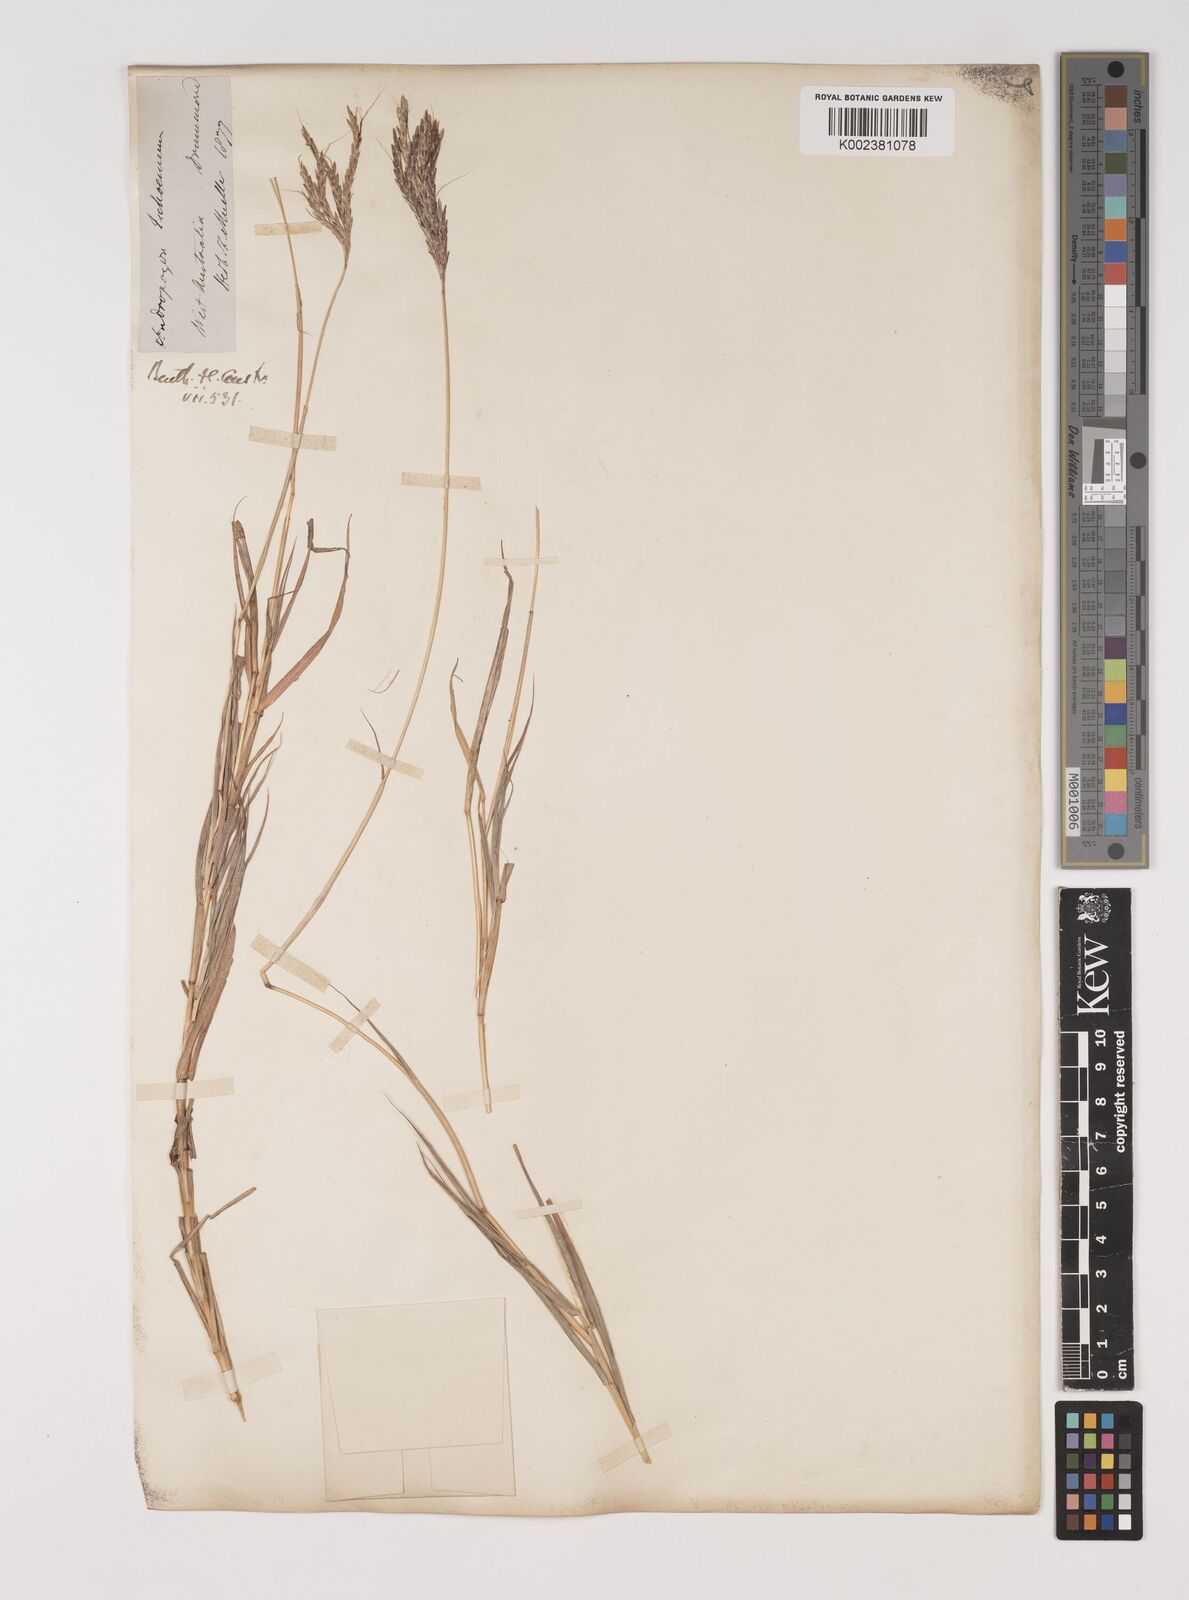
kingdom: Plantae
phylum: Tracheophyta
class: Liliopsida
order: Poales
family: Poaceae
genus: Bothriochloa
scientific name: Bothriochloa ewartiana
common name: Desert-bluegrass
